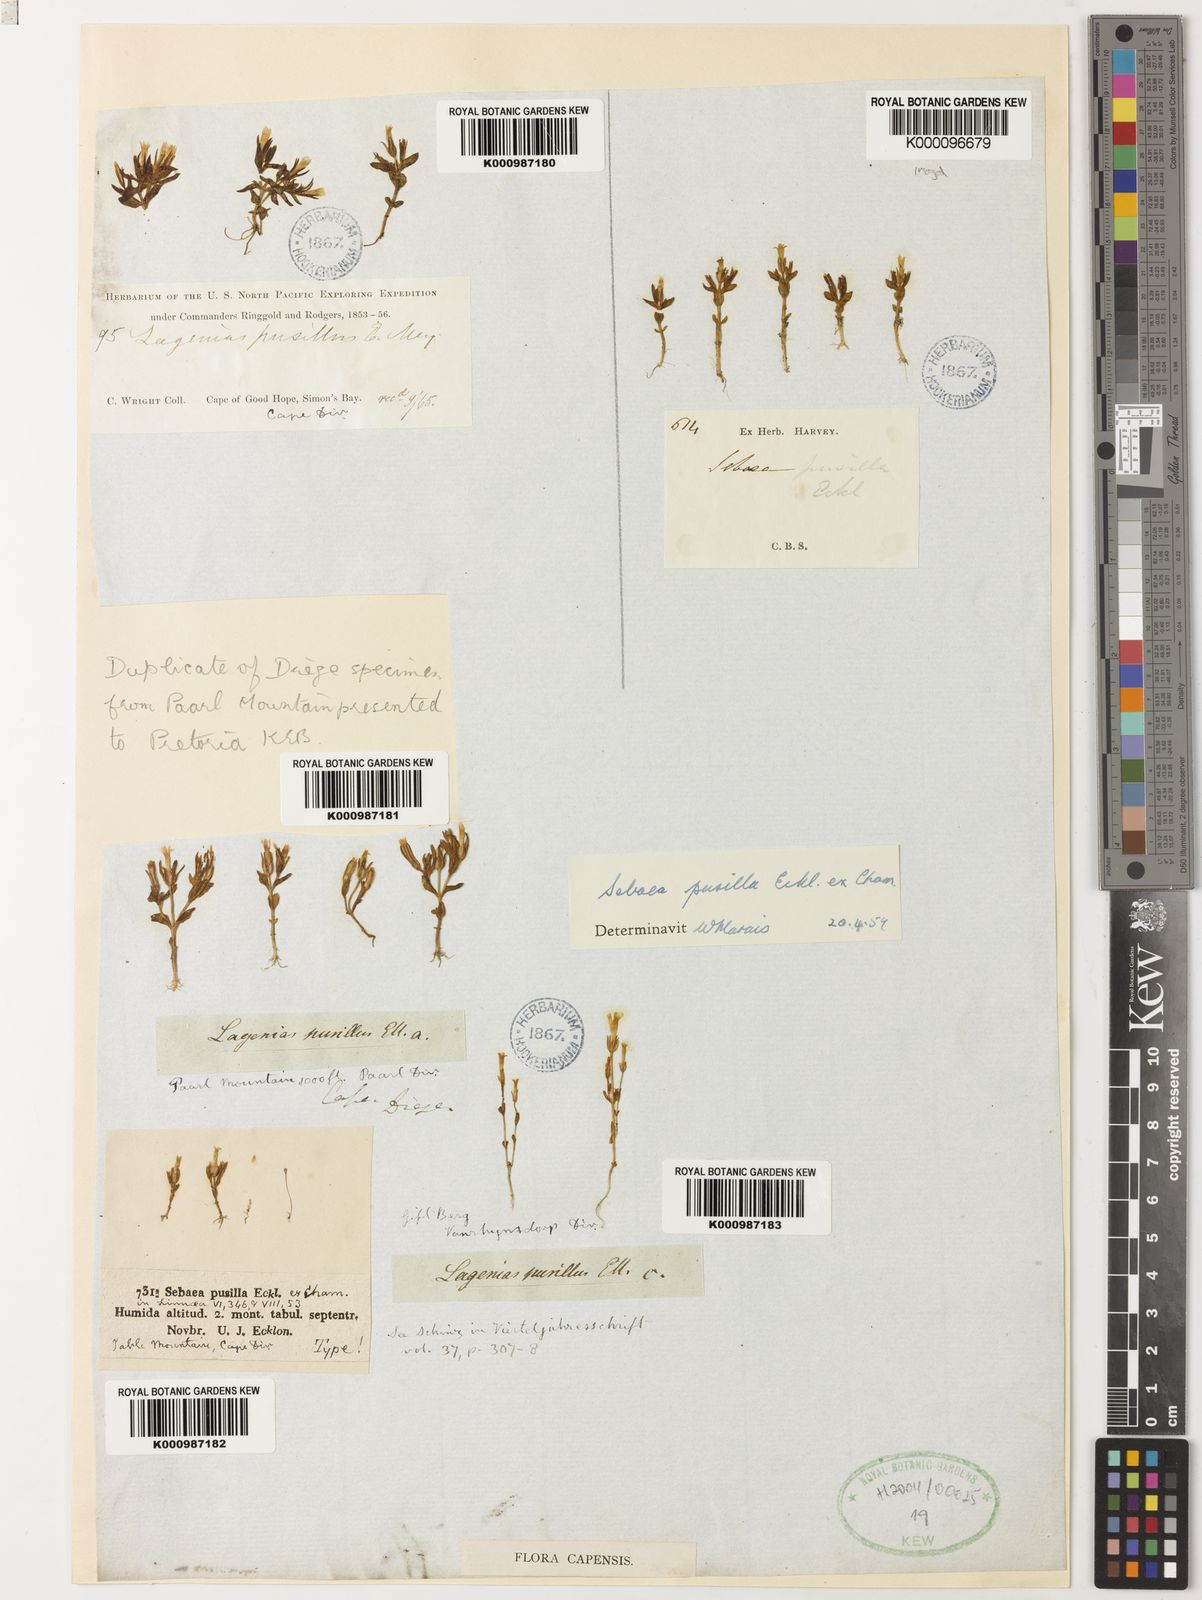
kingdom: Plantae
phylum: Tracheophyta
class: Magnoliopsida
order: Gentianales
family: Gentianaceae
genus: Lagenias
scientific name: Lagenias
